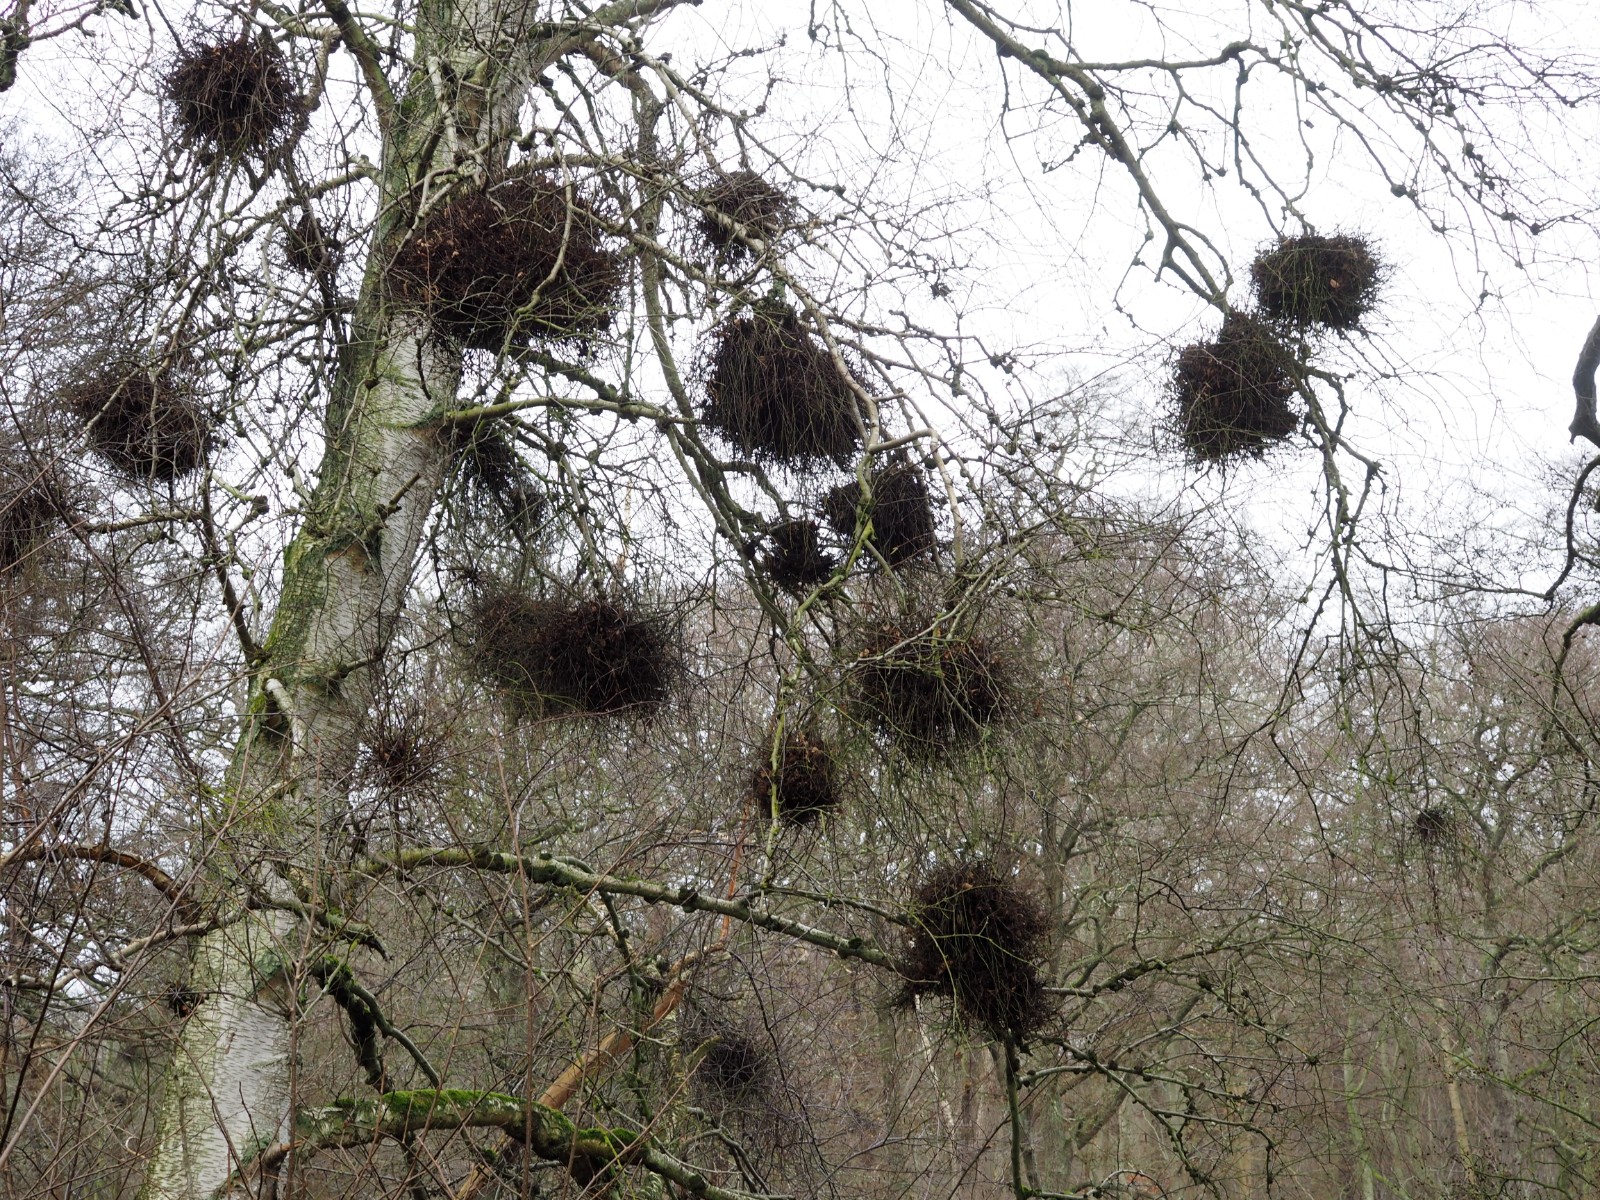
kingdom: Fungi
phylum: Ascomycota
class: Taphrinomycetes
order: Taphrinales
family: Taphrinaceae
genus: Taphrina
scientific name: Taphrina betulina
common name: hekse-sækdug
